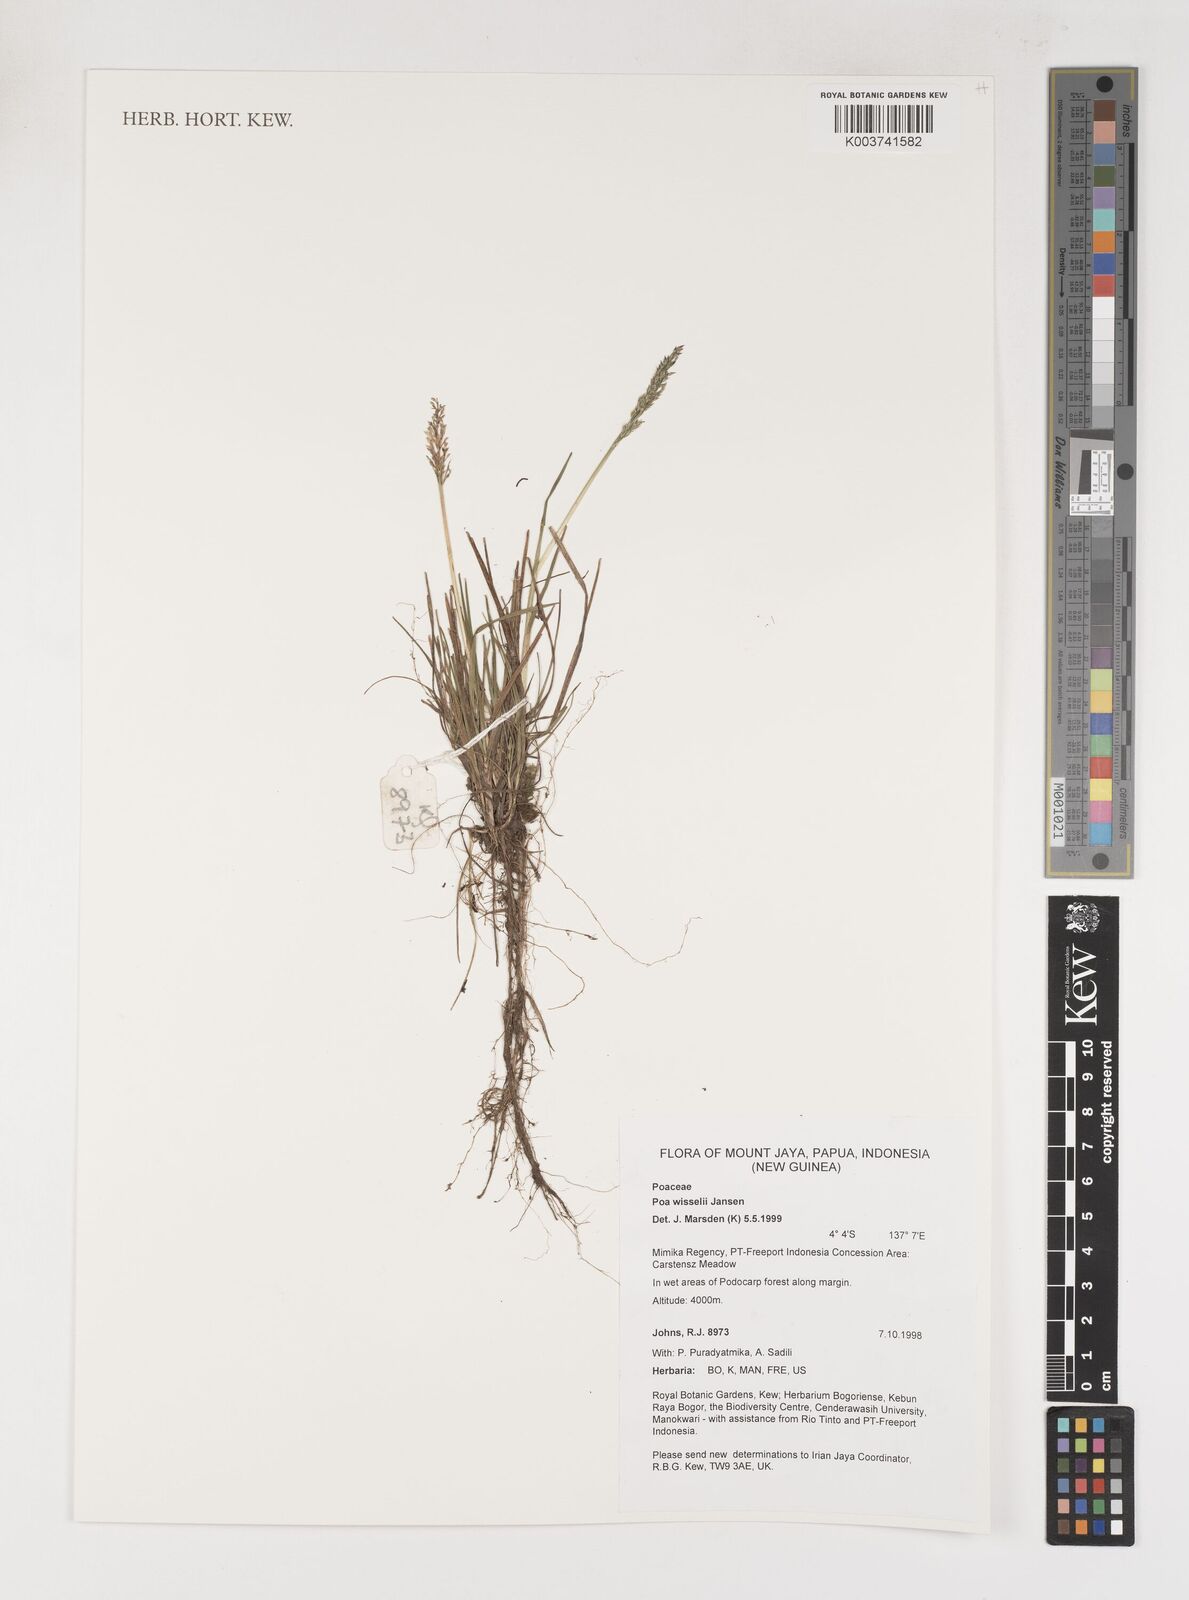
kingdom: Plantae
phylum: Tracheophyta
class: Liliopsida
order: Poales
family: Poaceae
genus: Poa
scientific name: Poa wisselii
